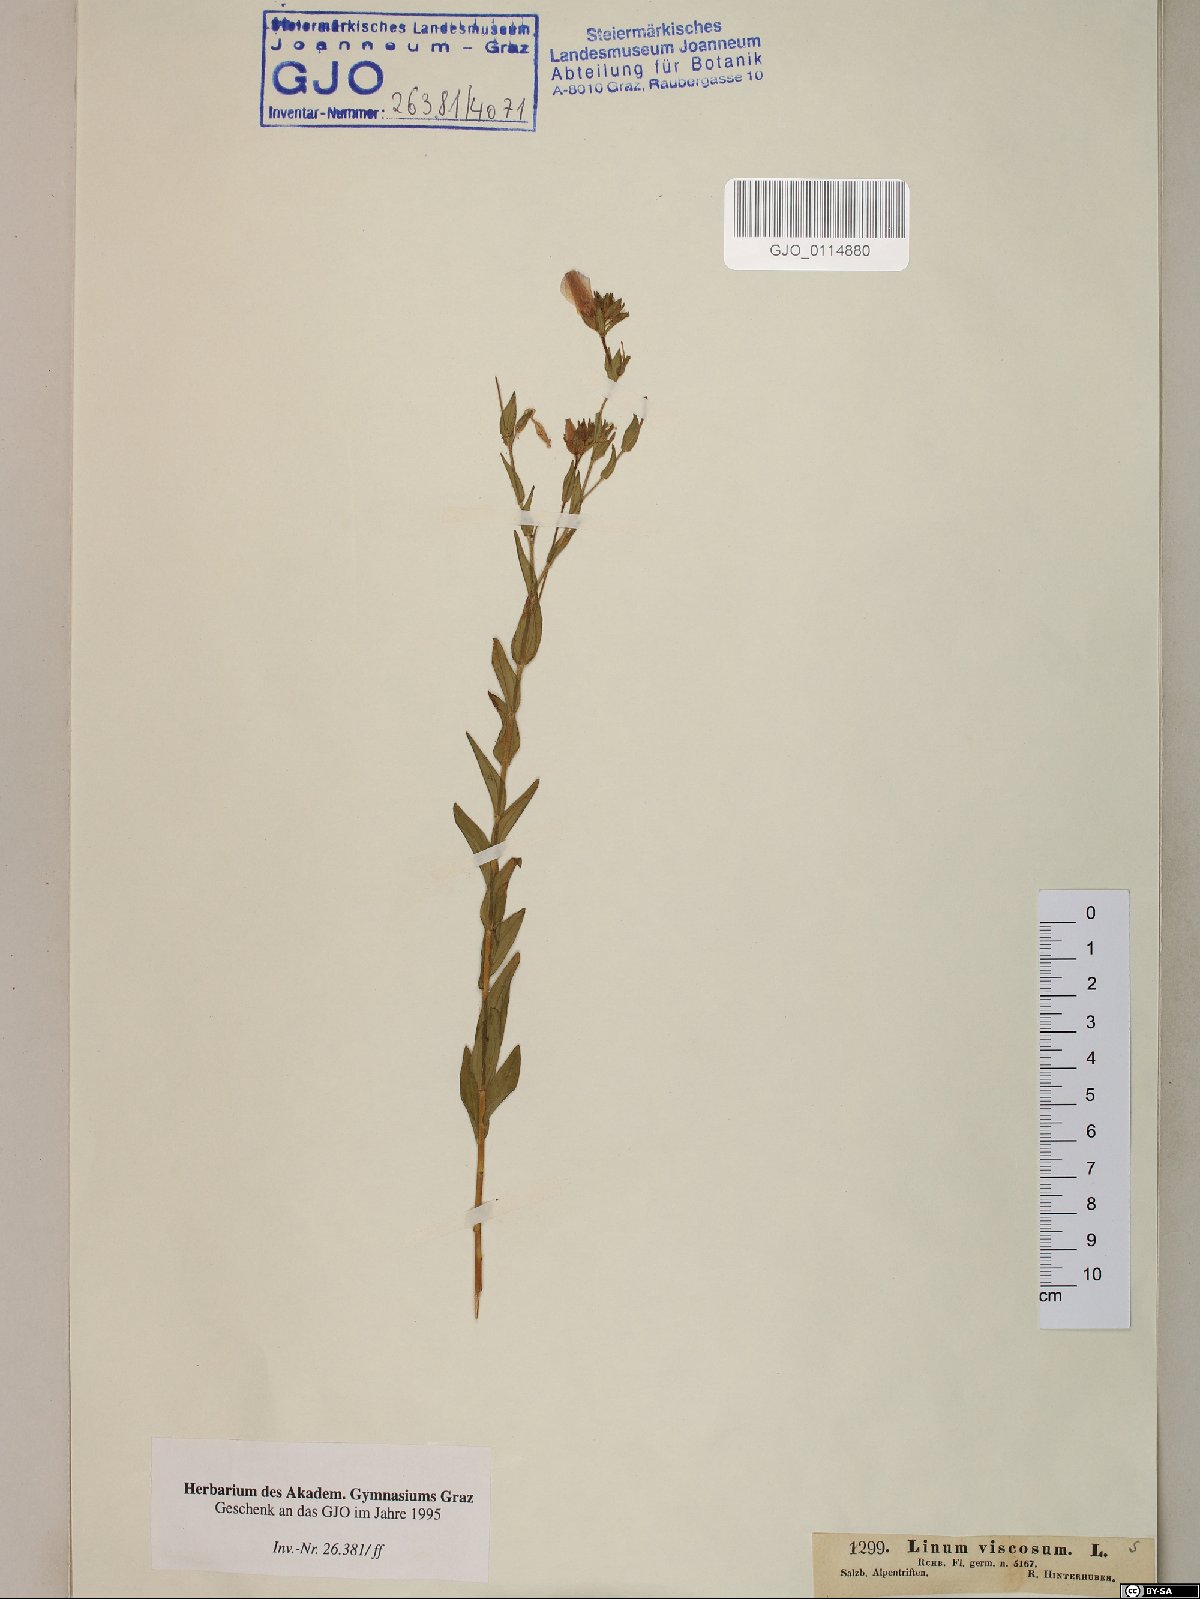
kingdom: Plantae
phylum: Tracheophyta
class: Magnoliopsida
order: Malpighiales
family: Linaceae
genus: Linum
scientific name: Linum viscosum
